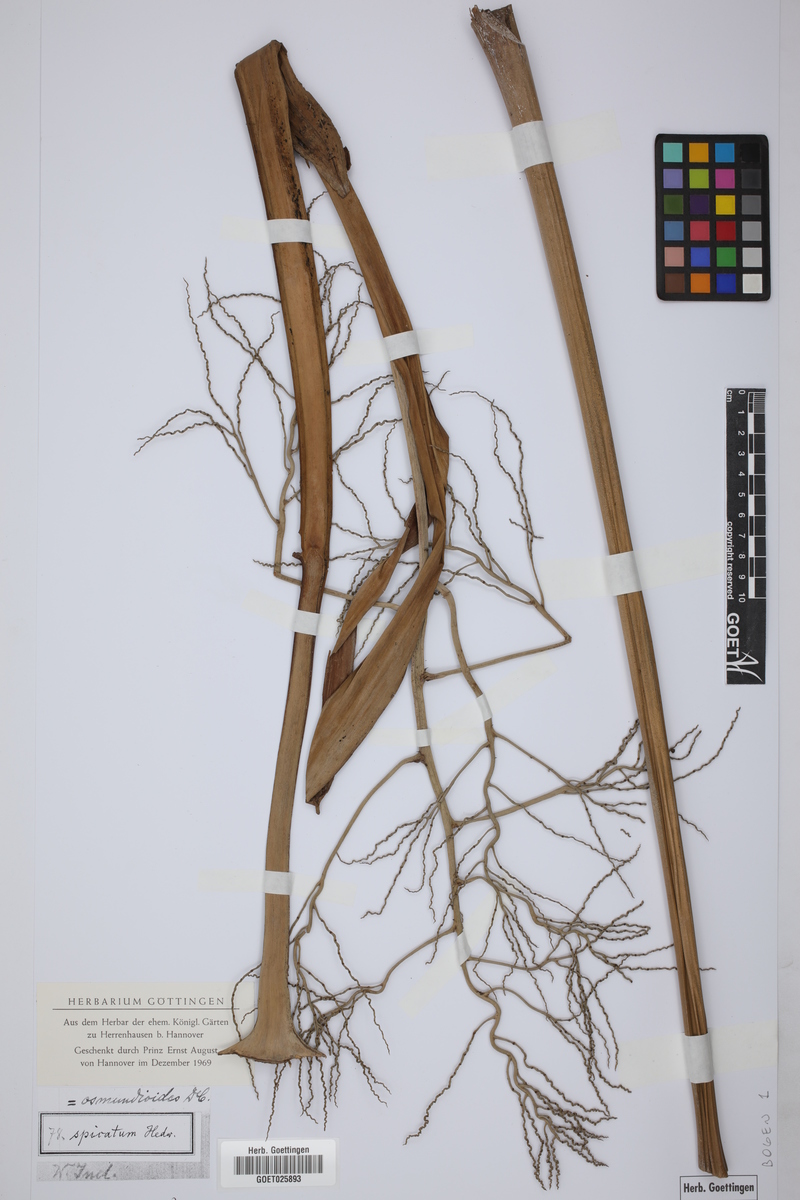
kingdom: Plantae
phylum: Tracheophyta
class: Liliopsida
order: Arecales
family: Arecaceae
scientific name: Arecaceae
